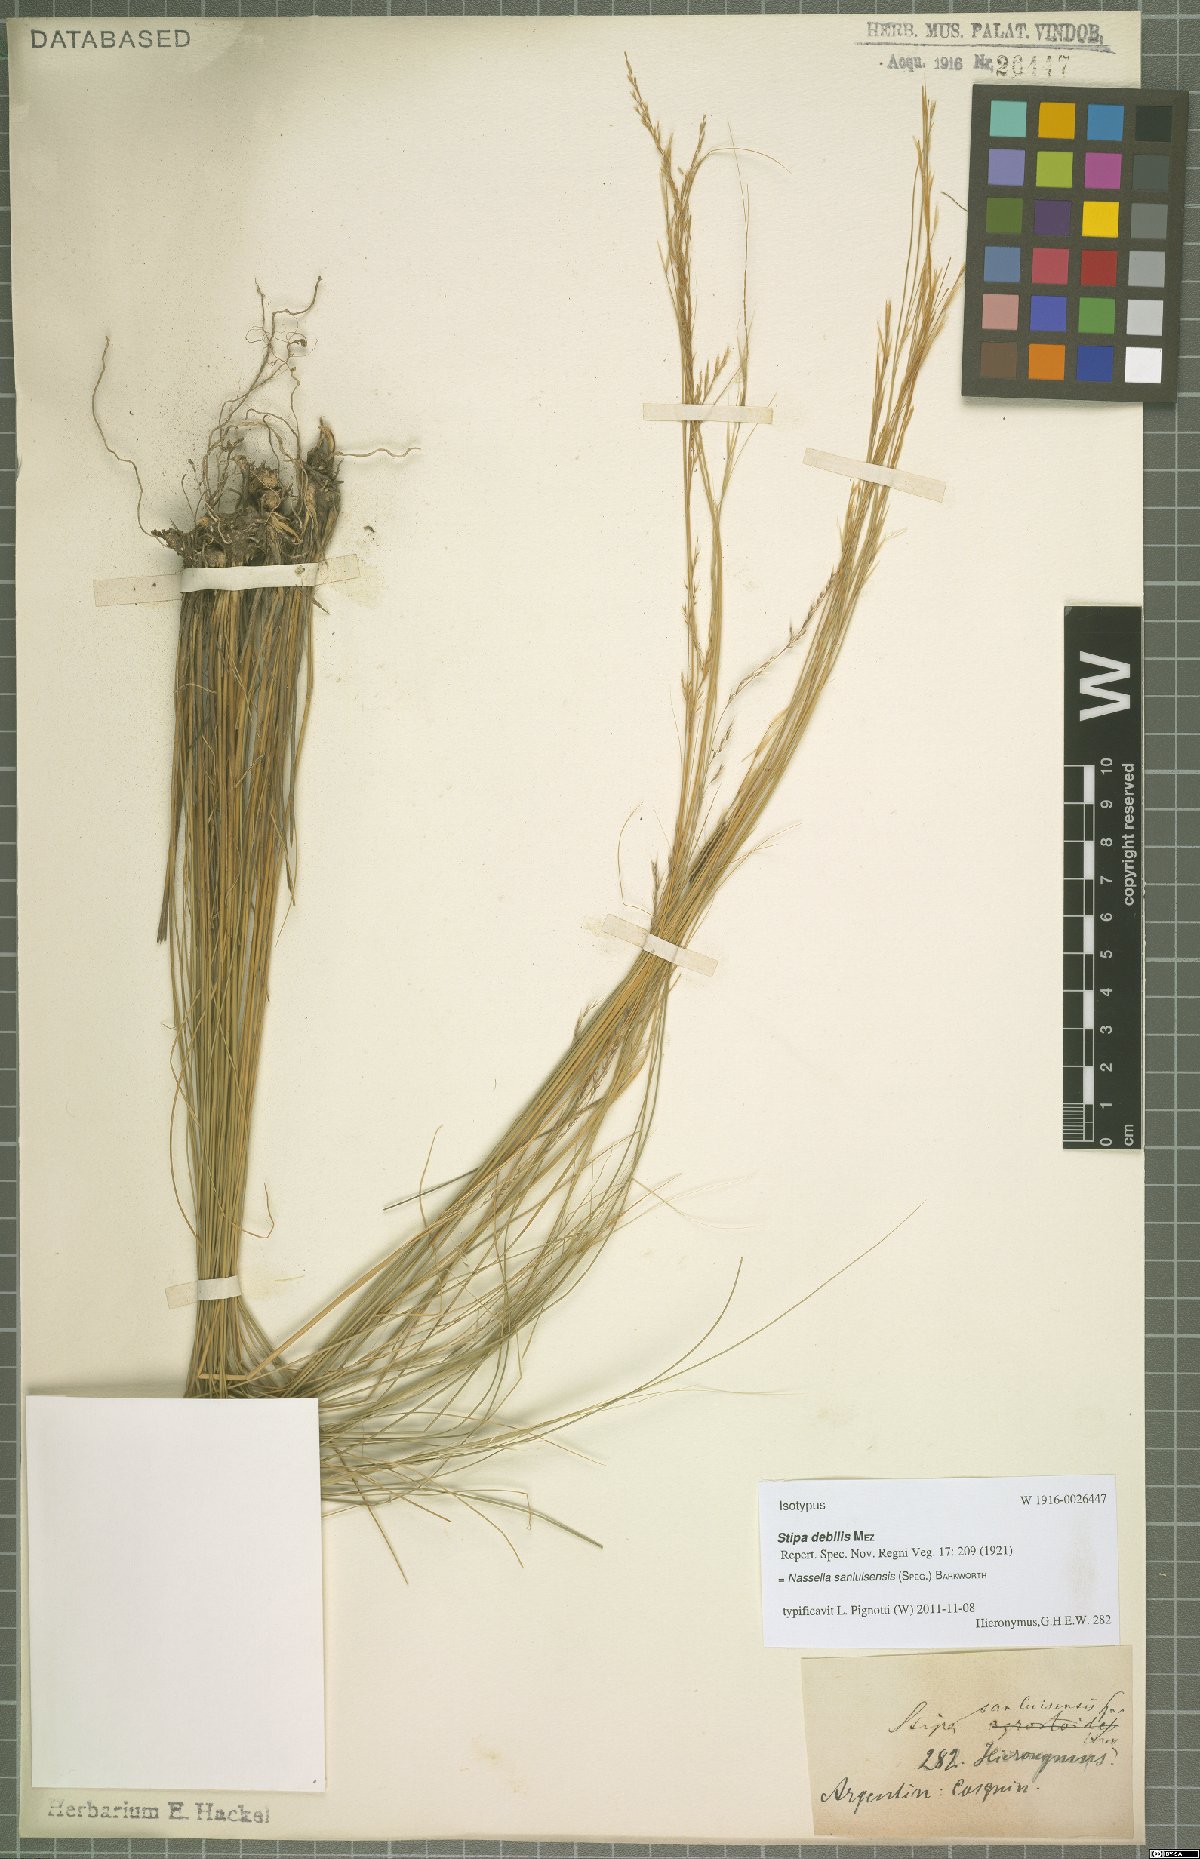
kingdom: Plantae
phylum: Tracheophyta
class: Liliopsida
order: Poales
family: Poaceae
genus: Nassella
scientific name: Nassella sanluisensis
